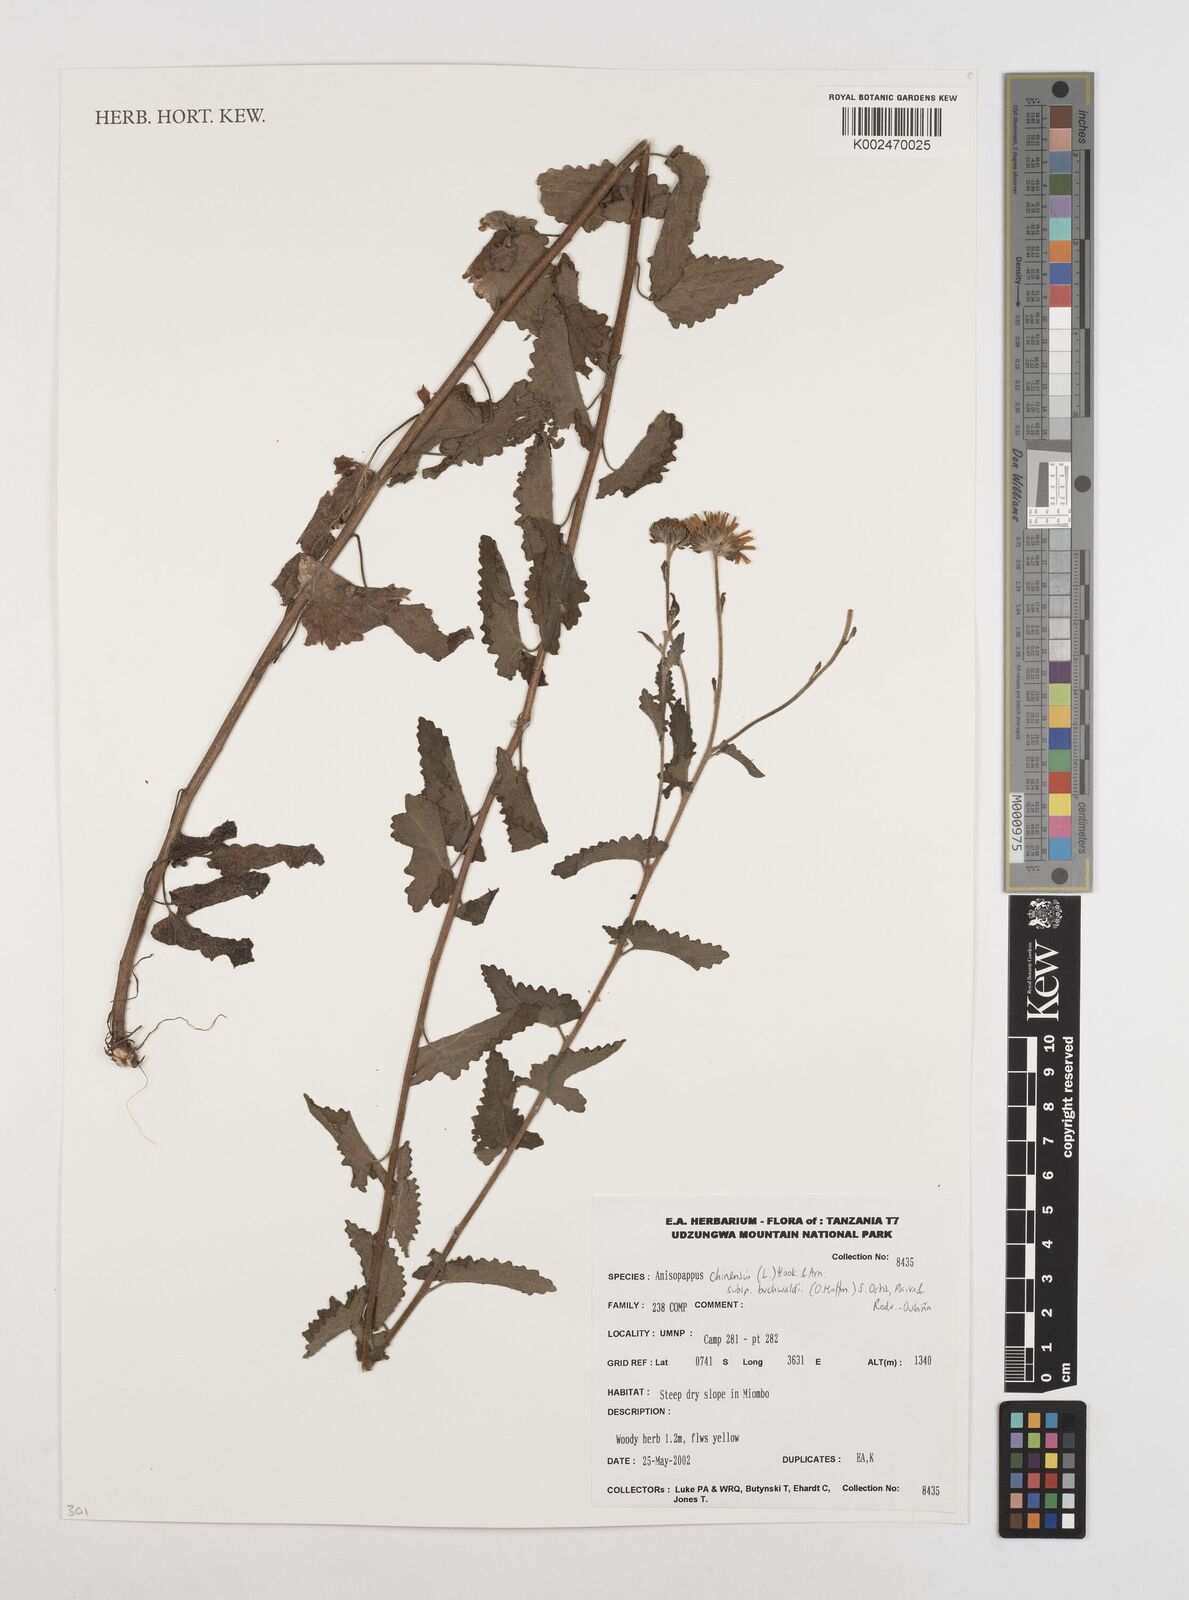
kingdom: Plantae
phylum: Tracheophyta
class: Magnoliopsida
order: Asterales
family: Asteraceae
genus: Anisopappus
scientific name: Anisopappus africanus
